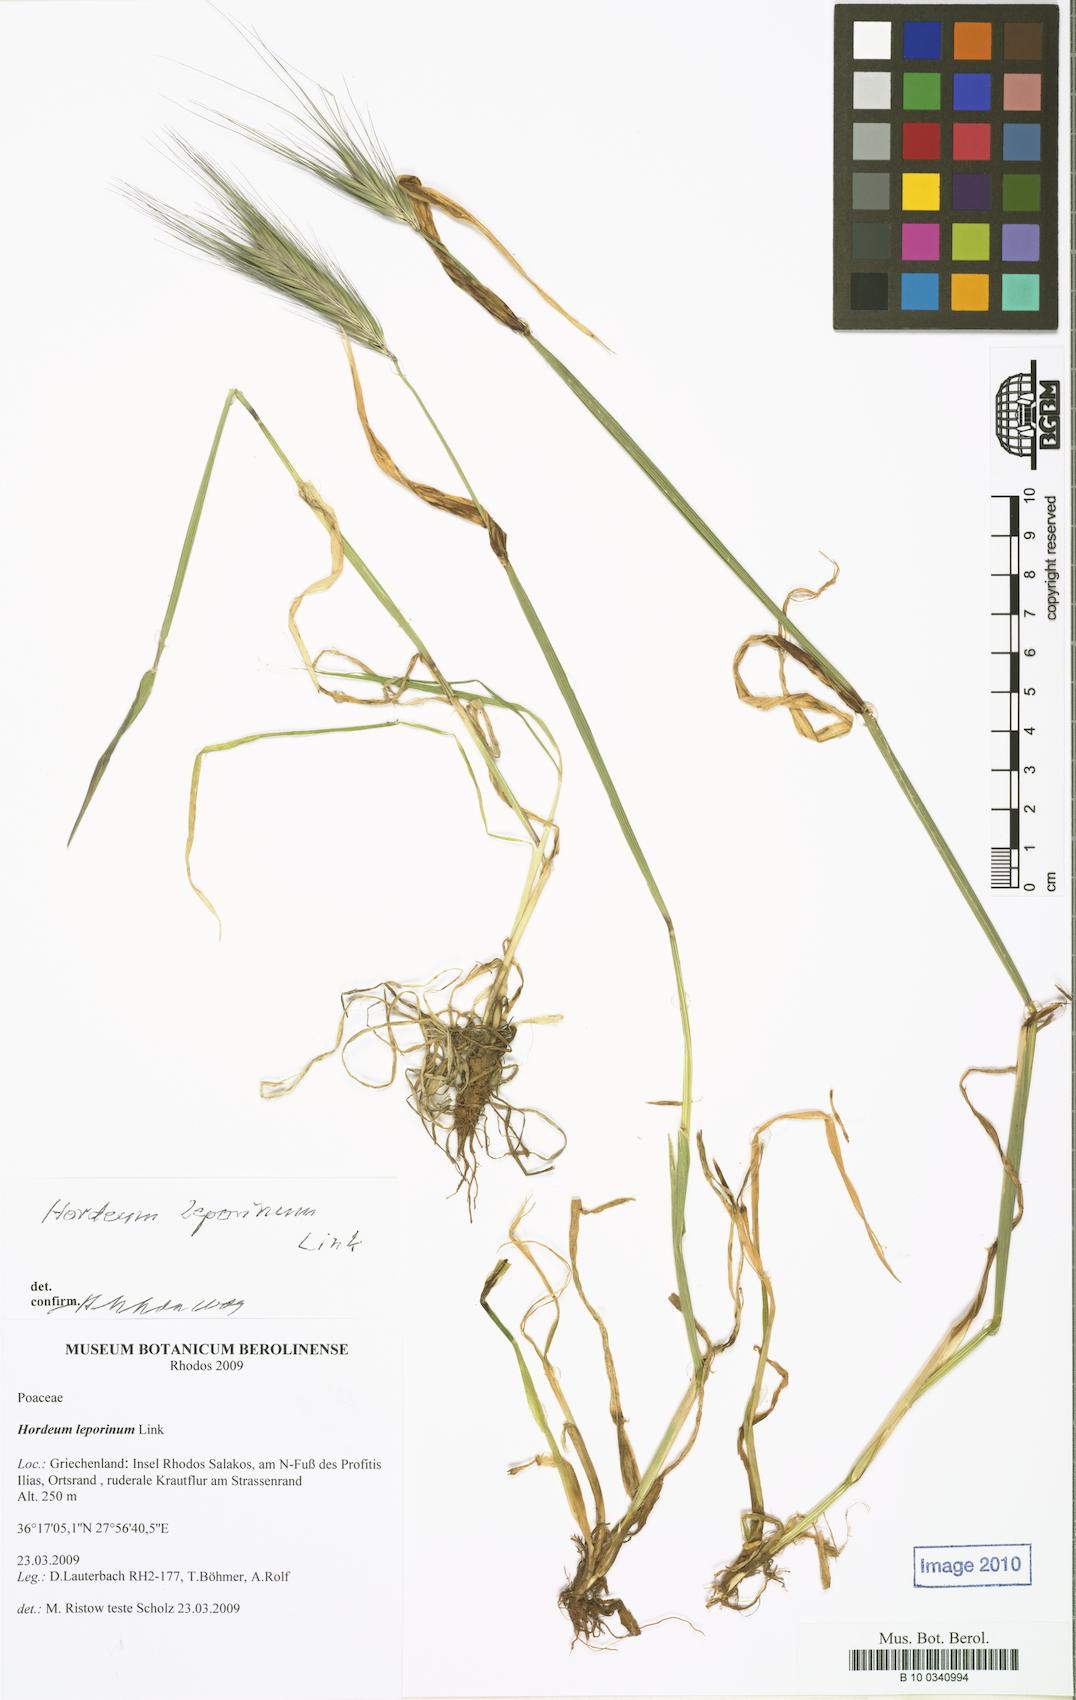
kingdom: Plantae
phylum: Tracheophyta
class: Liliopsida
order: Poales
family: Poaceae
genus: Hordeum
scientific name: Hordeum murinum
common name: Wall barley
